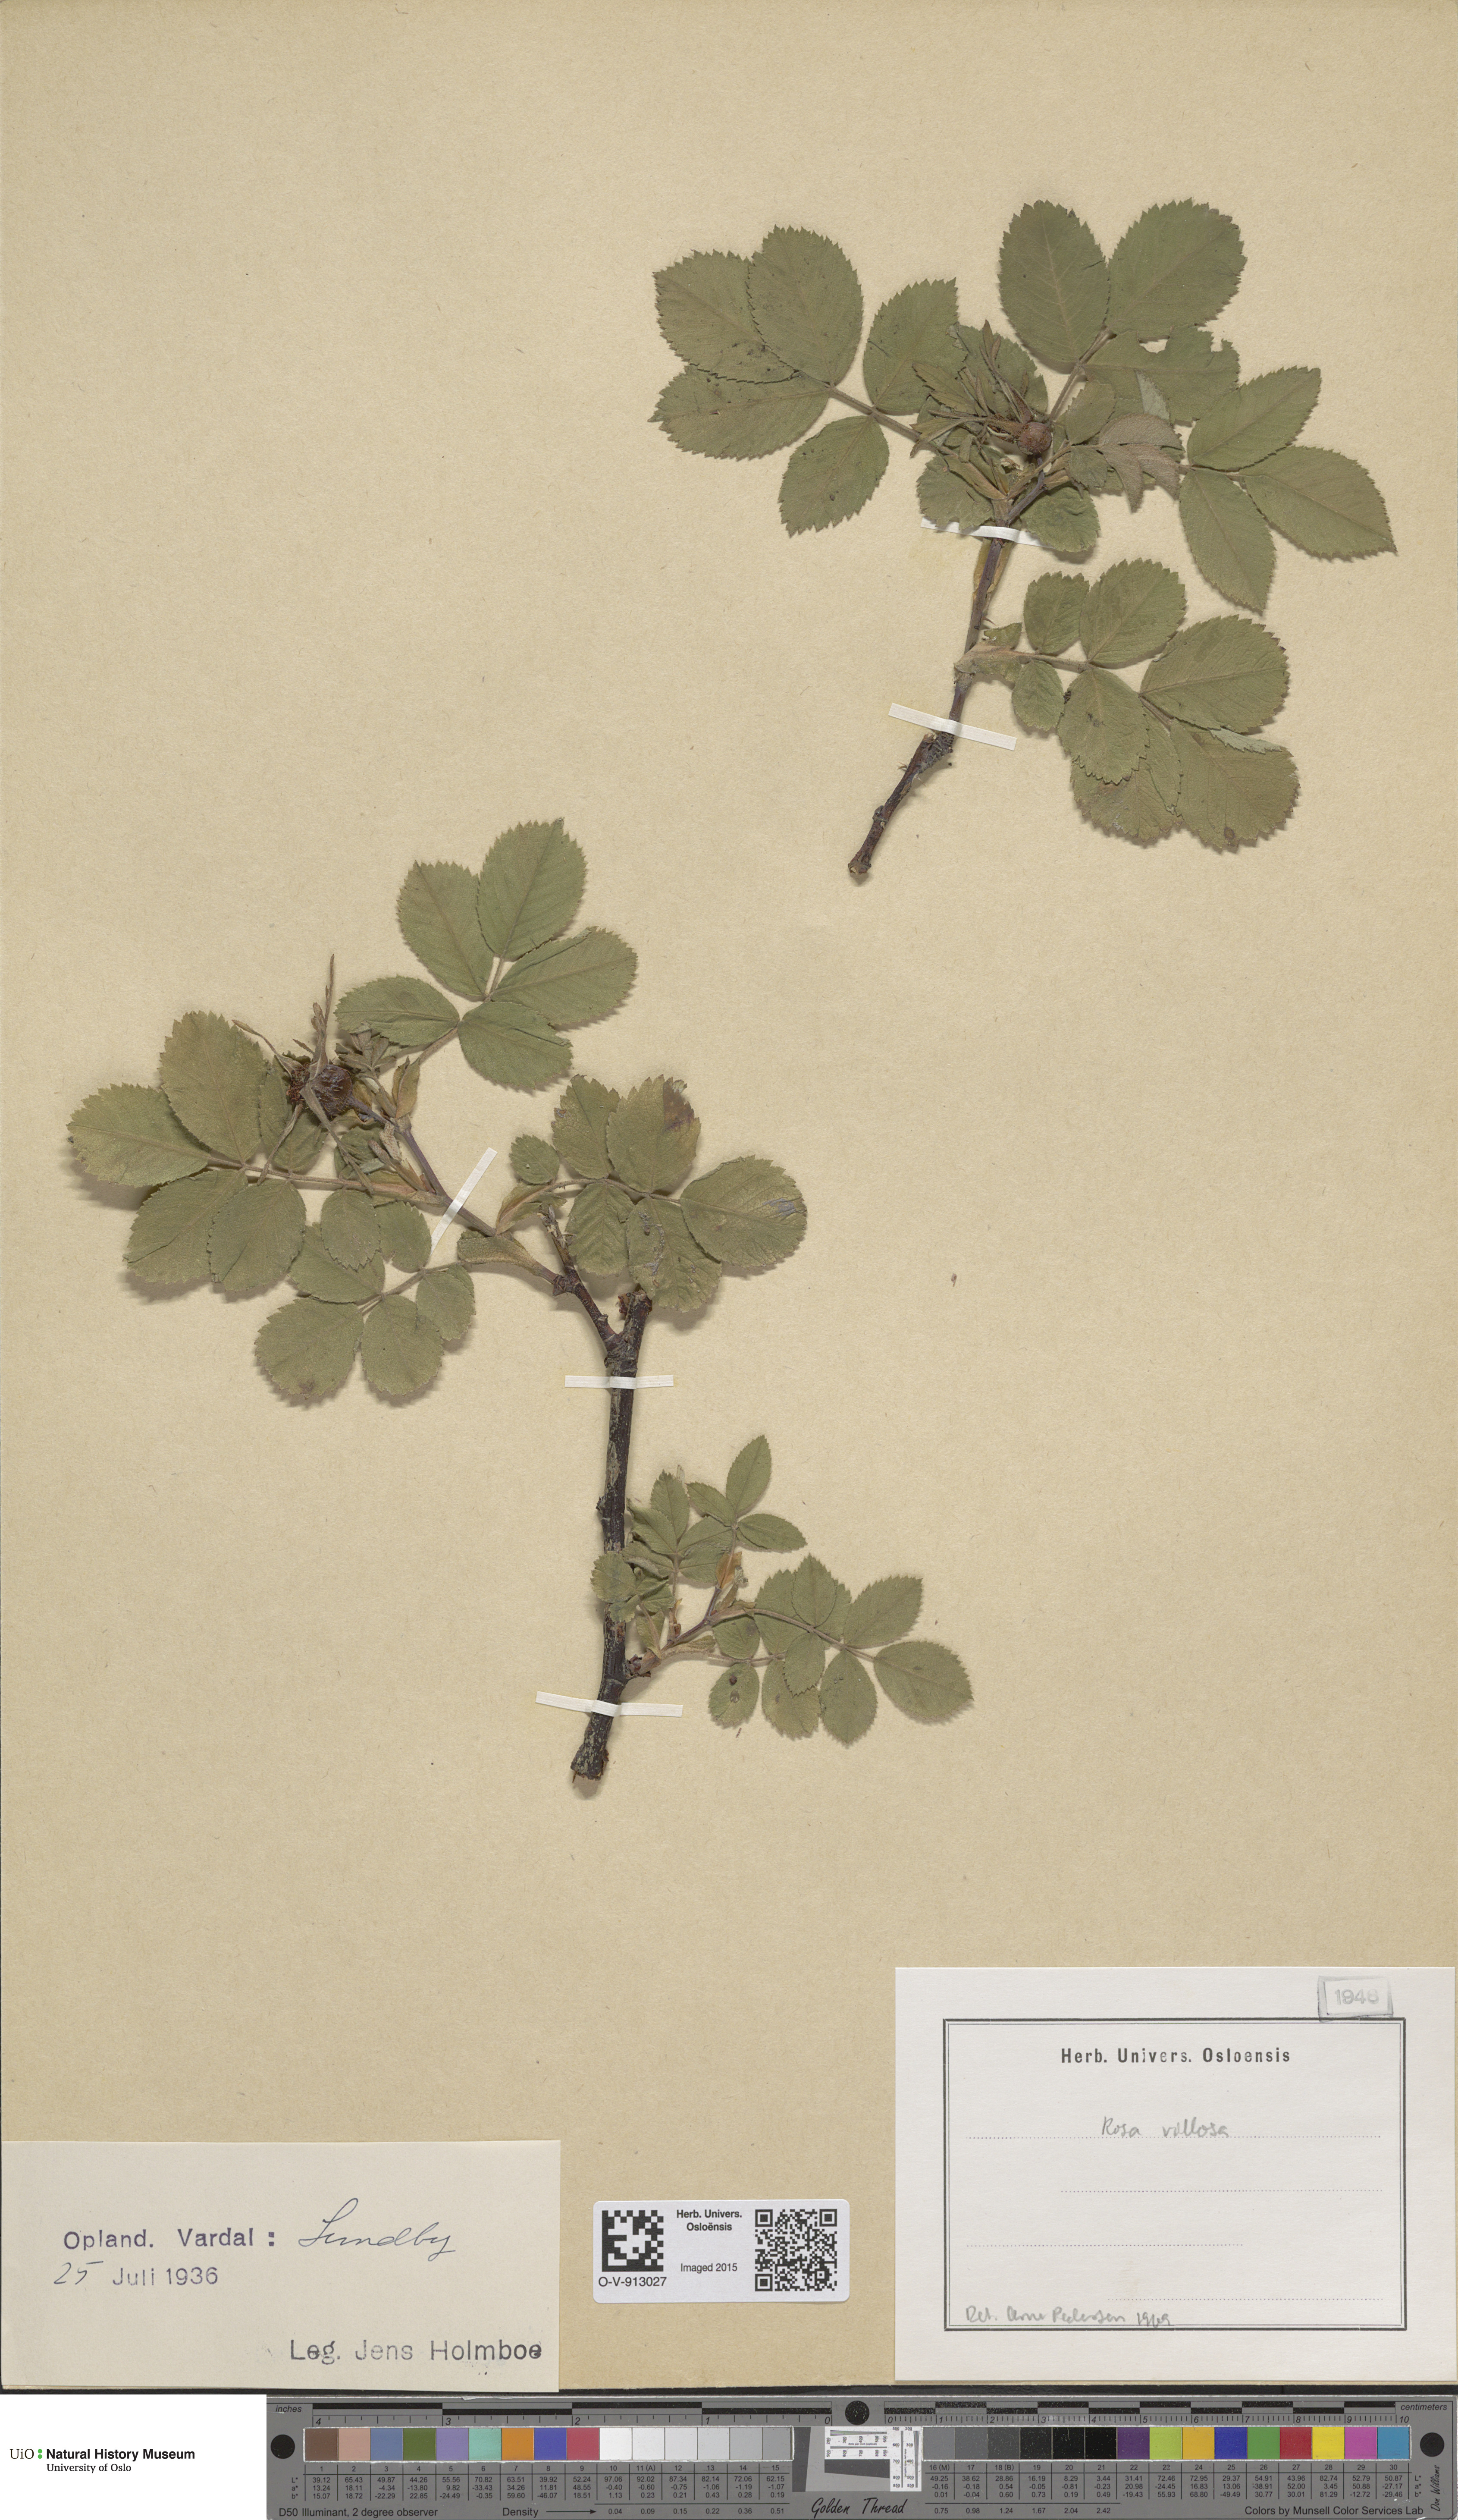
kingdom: Plantae
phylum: Tracheophyta
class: Magnoliopsida
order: Rosales
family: Rosaceae
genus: Rosa
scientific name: Rosa villosa
